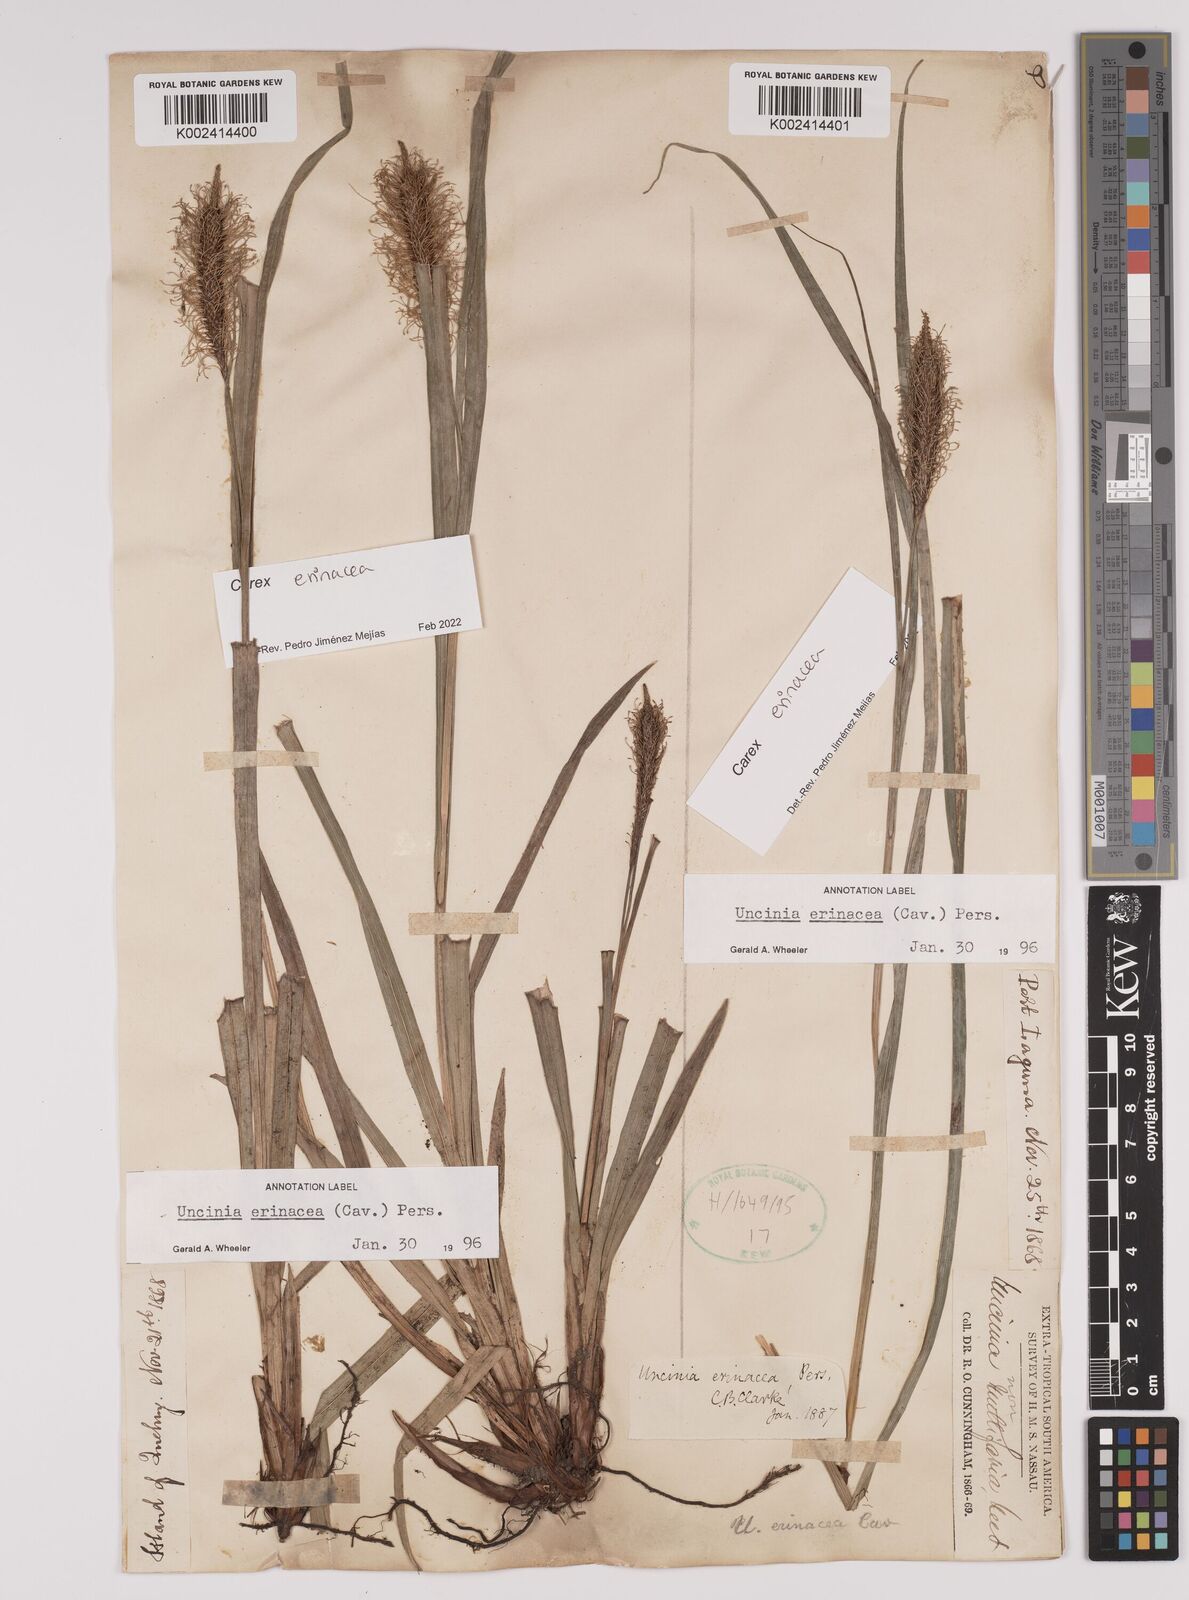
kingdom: Plantae
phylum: Tracheophyta
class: Liliopsida
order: Poales
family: Cyperaceae
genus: Carex
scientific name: Carex erinacea
